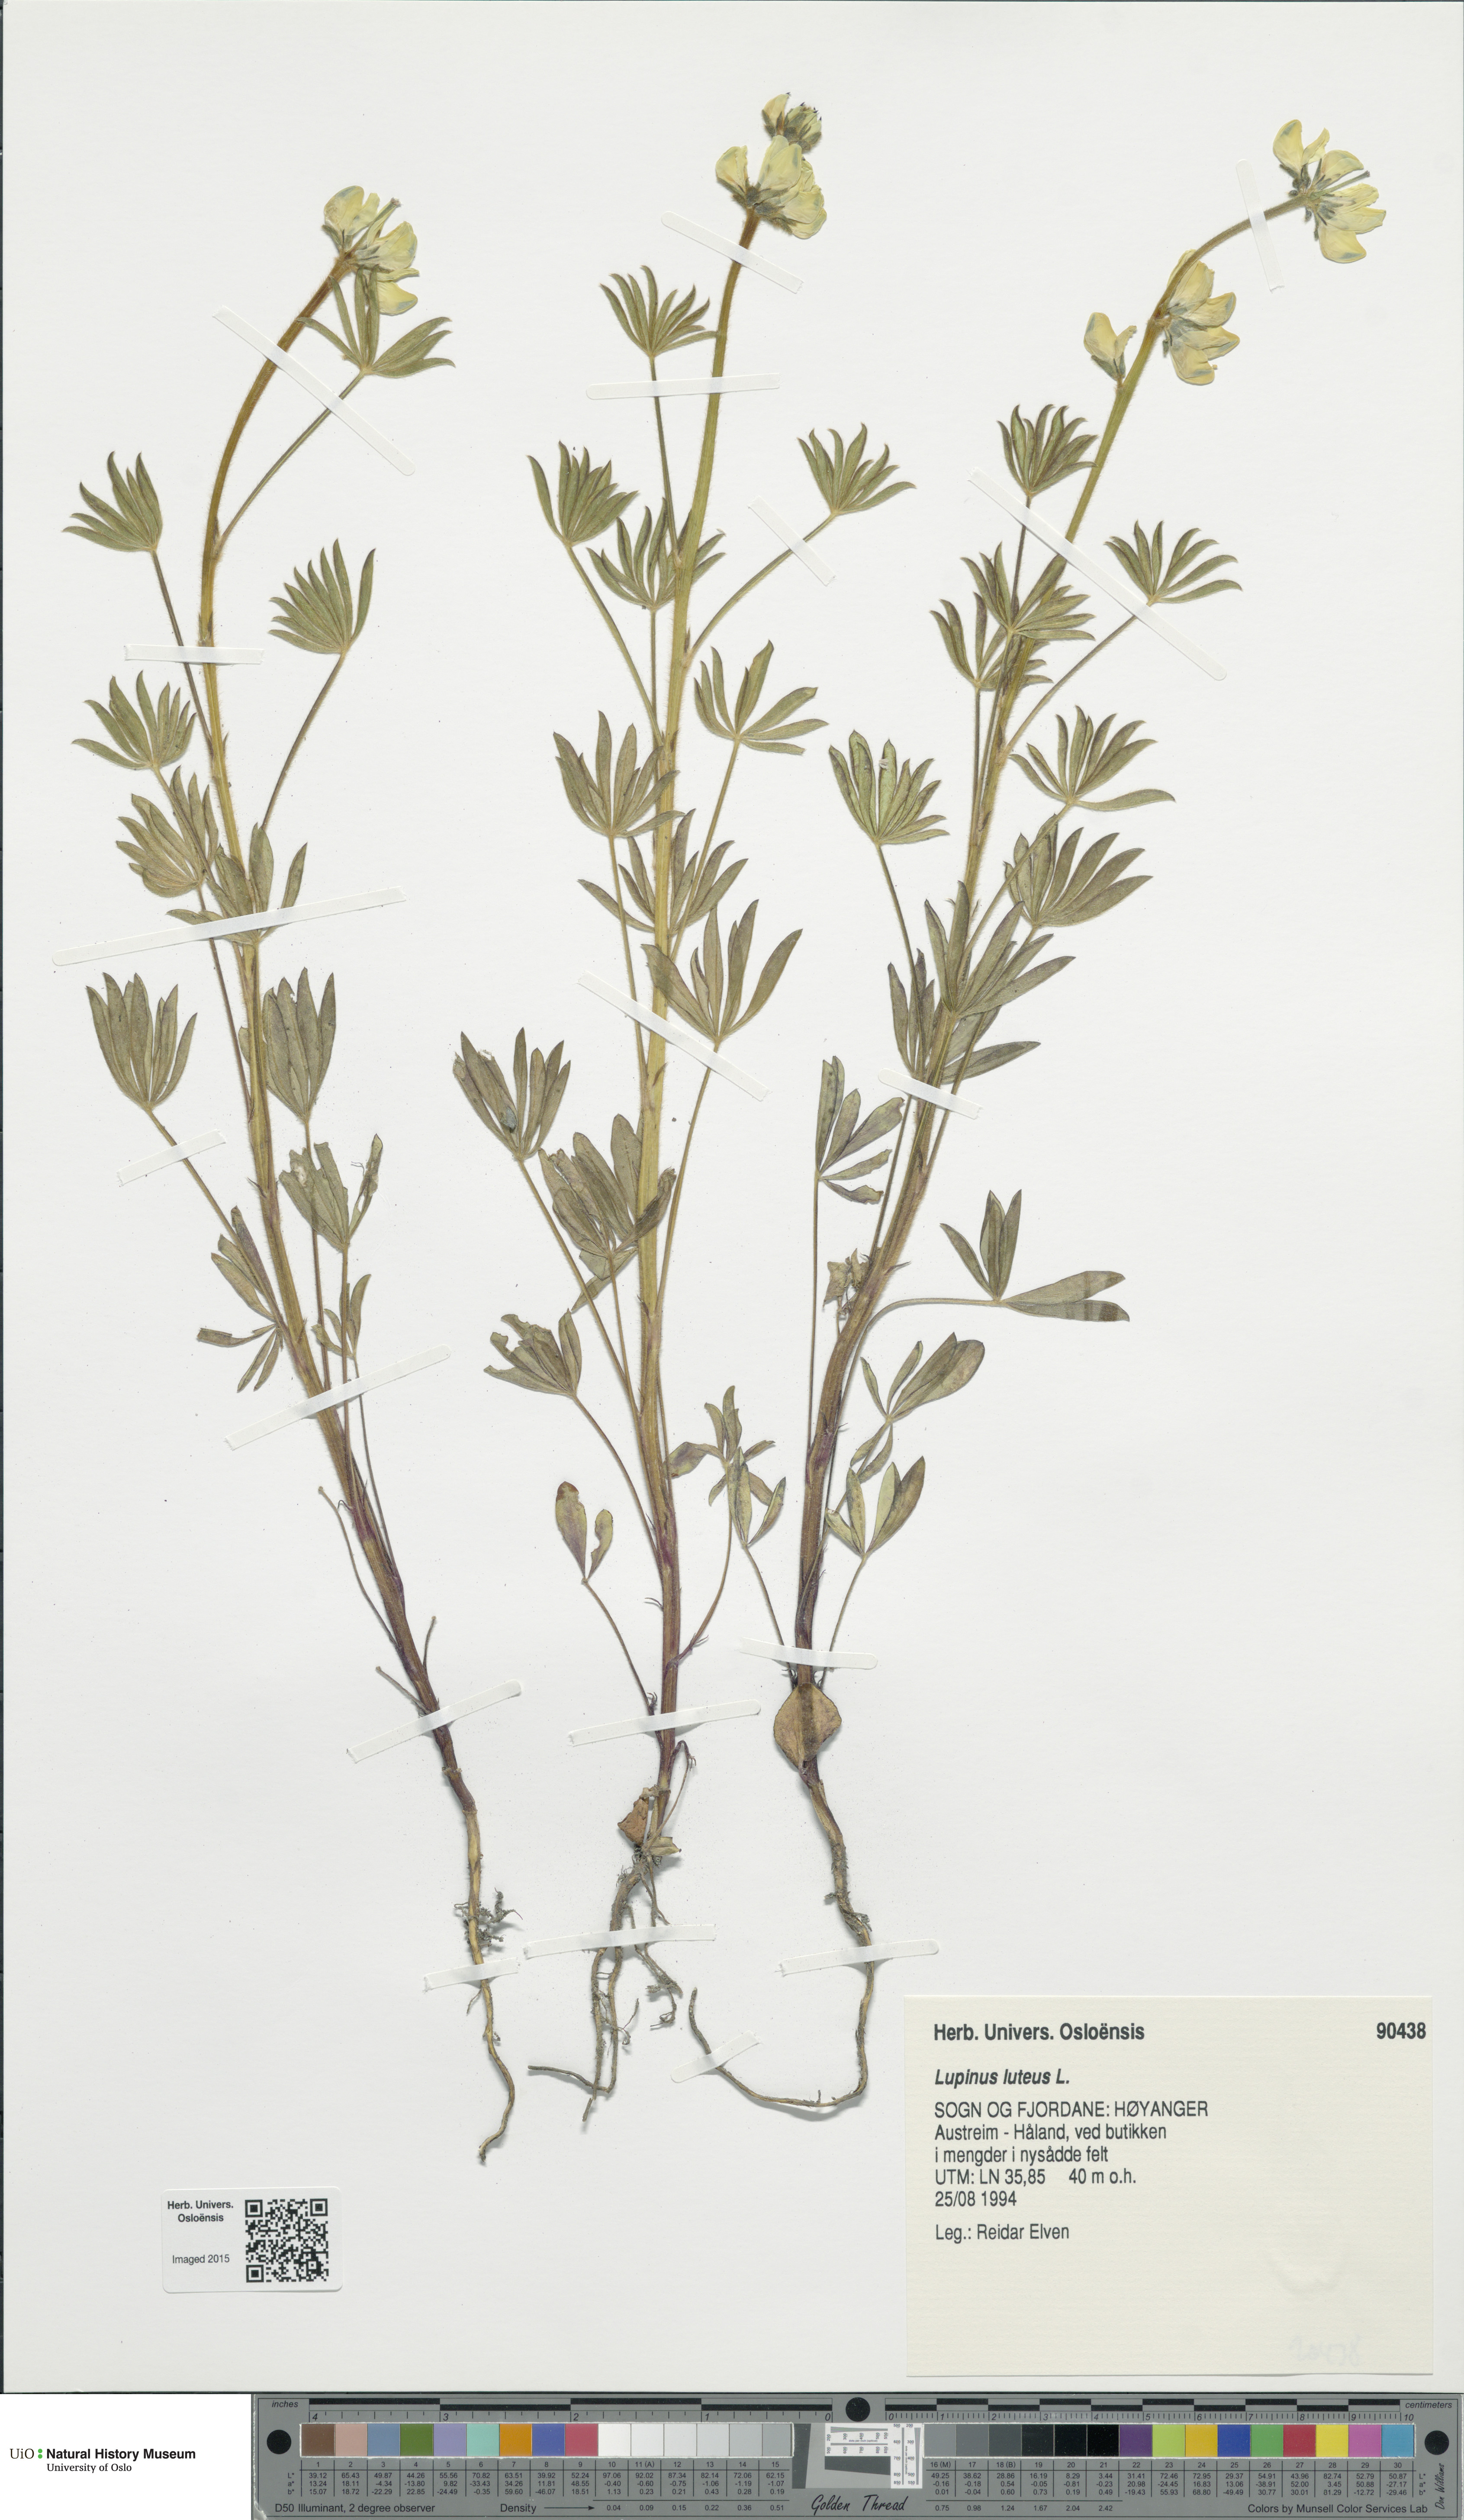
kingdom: Plantae
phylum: Tracheophyta
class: Magnoliopsida
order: Fabales
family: Fabaceae
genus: Lupinus
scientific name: Lupinus luteus
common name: European yellow lupine
